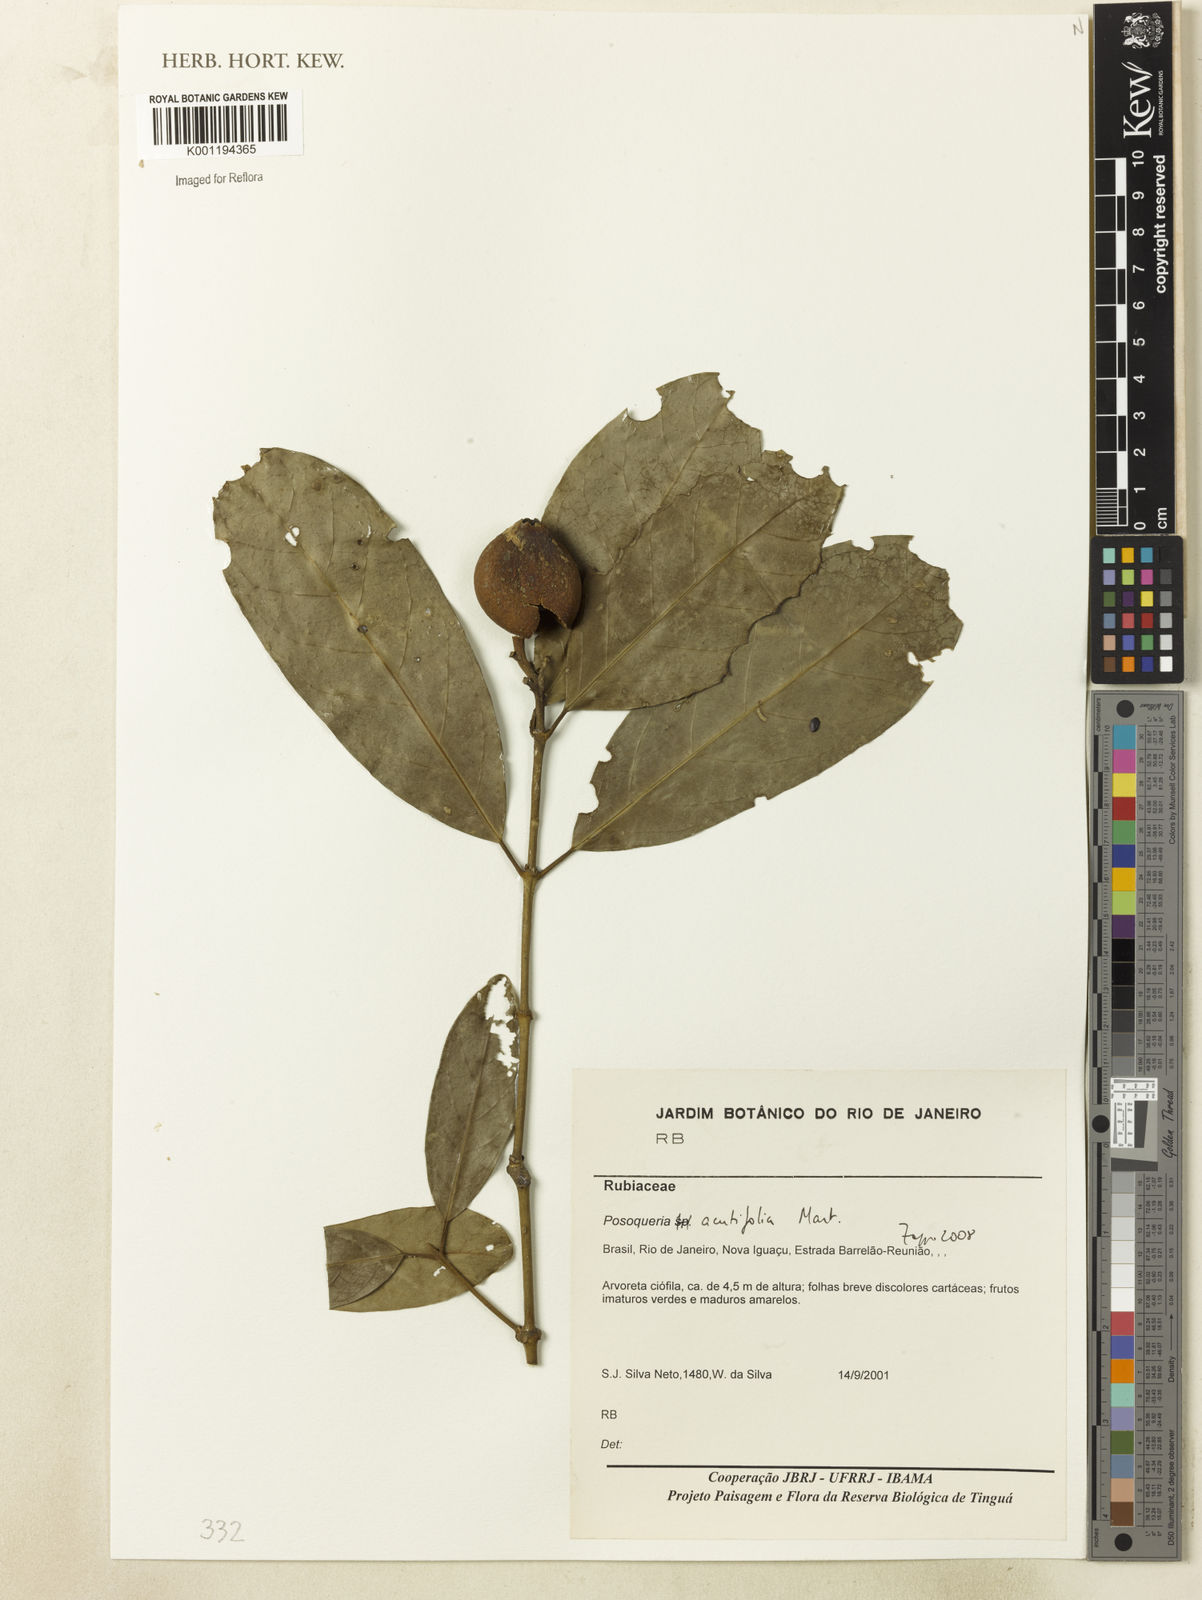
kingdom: Plantae
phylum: Tracheophyta
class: Magnoliopsida
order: Gentianales
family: Rubiaceae
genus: Posoqueria
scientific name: Posoqueria acutifolia
